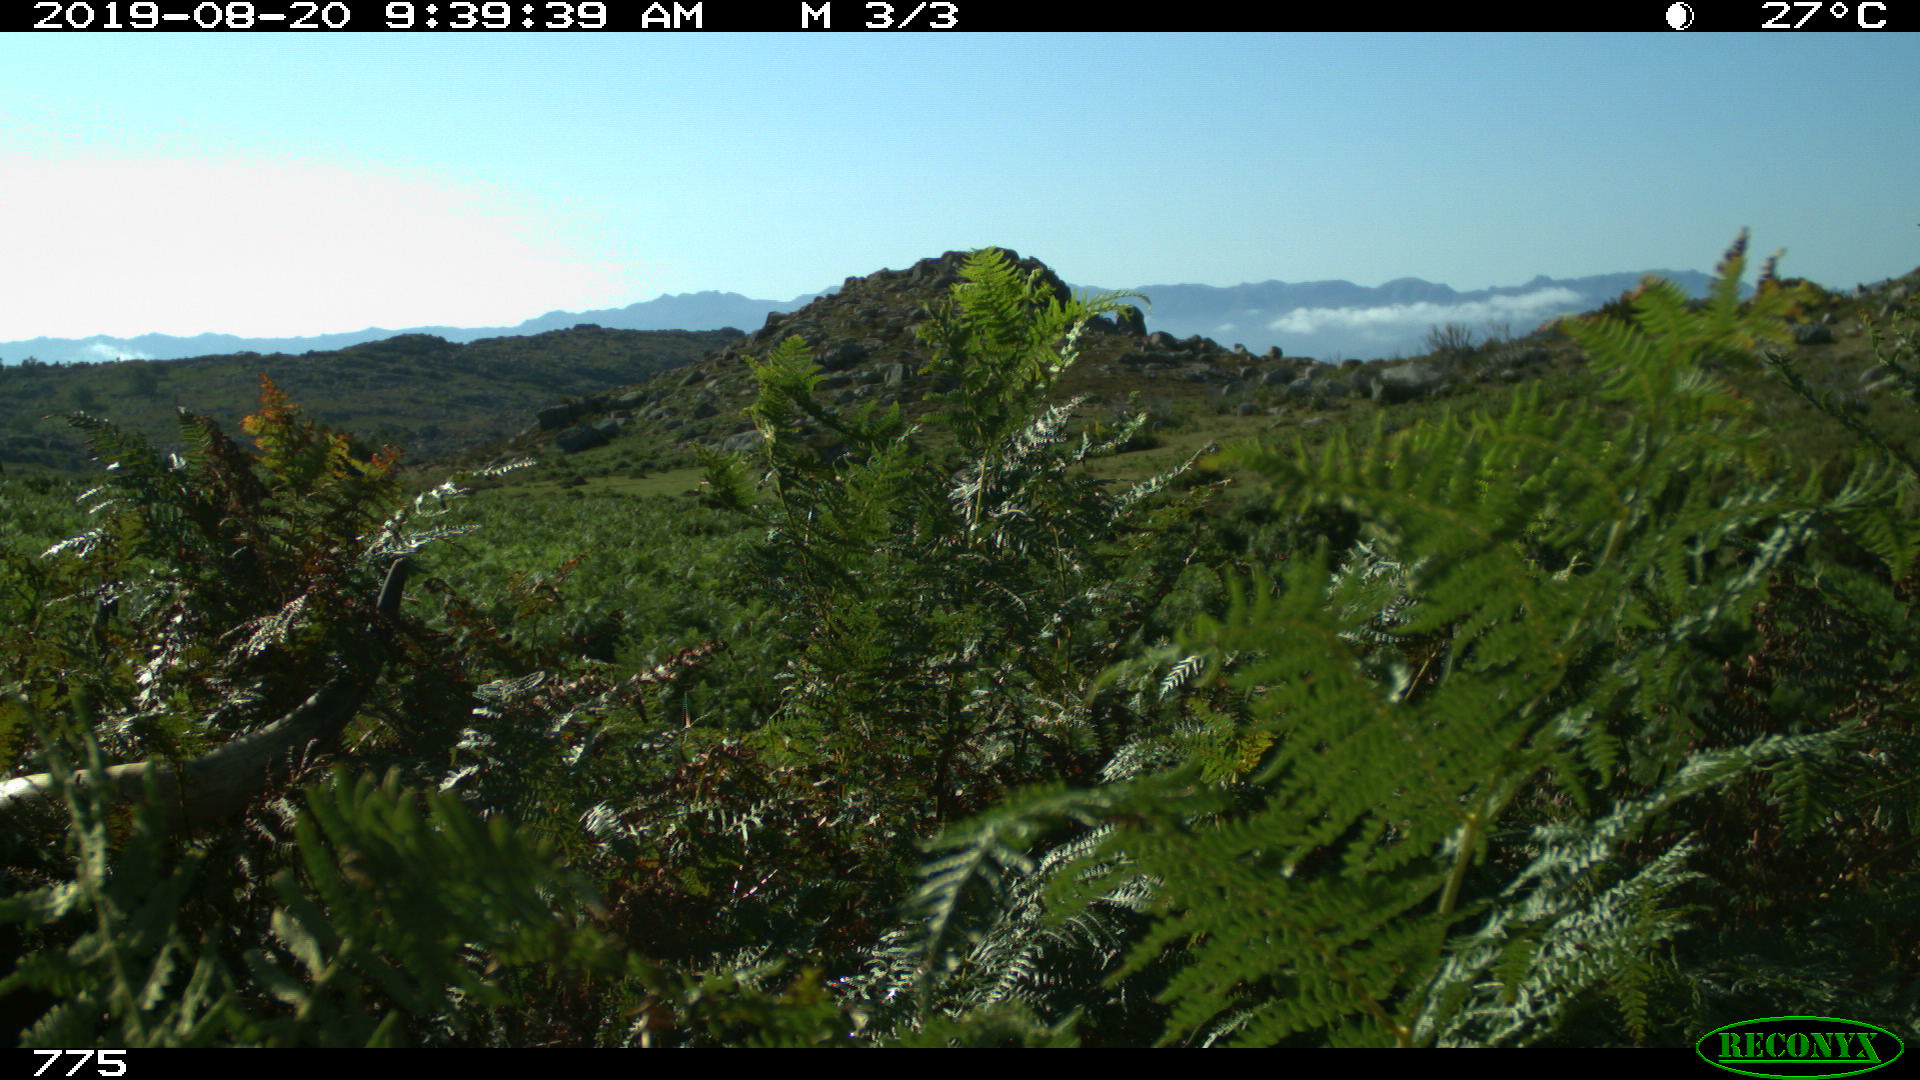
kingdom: Animalia
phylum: Chordata
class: Mammalia
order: Artiodactyla
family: Bovidae
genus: Bos
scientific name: Bos taurus
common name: Domesticated cattle
